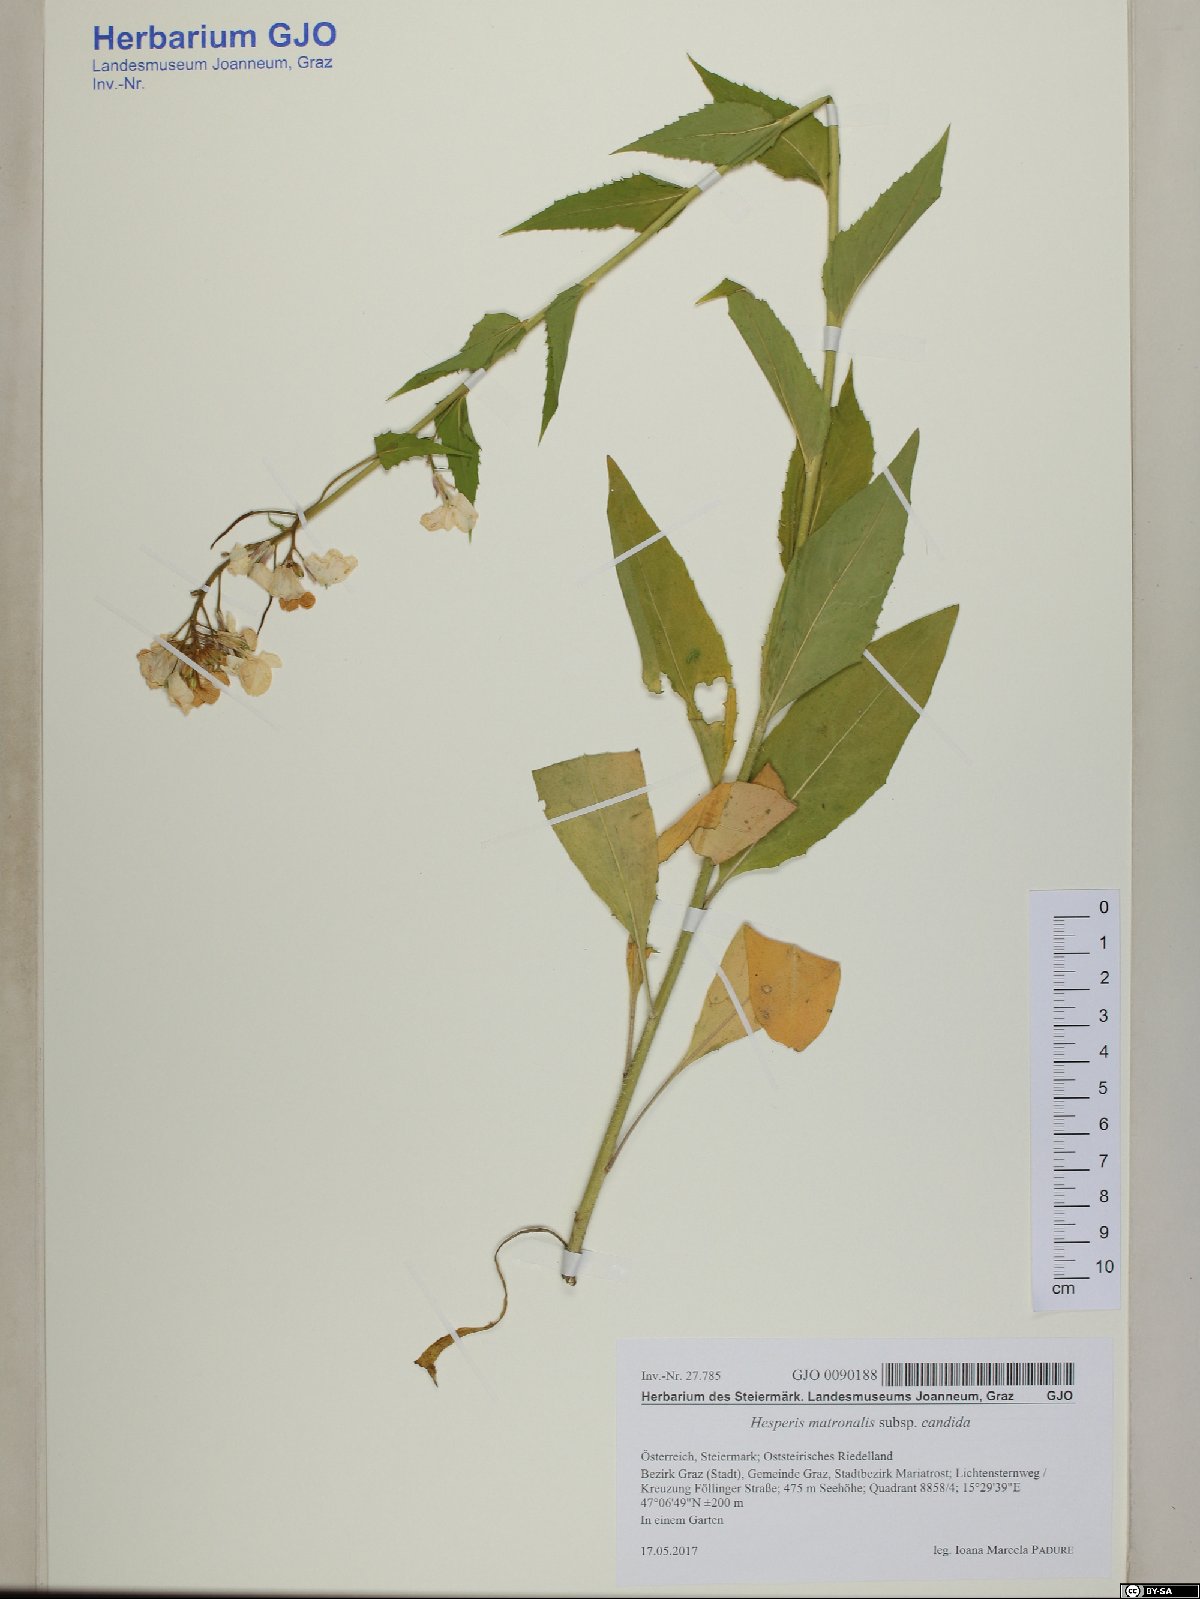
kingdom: Plantae
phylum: Tracheophyta
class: Magnoliopsida
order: Brassicales
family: Brassicaceae
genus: Hesperis
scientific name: Hesperis matronalis
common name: Dame's-violet
